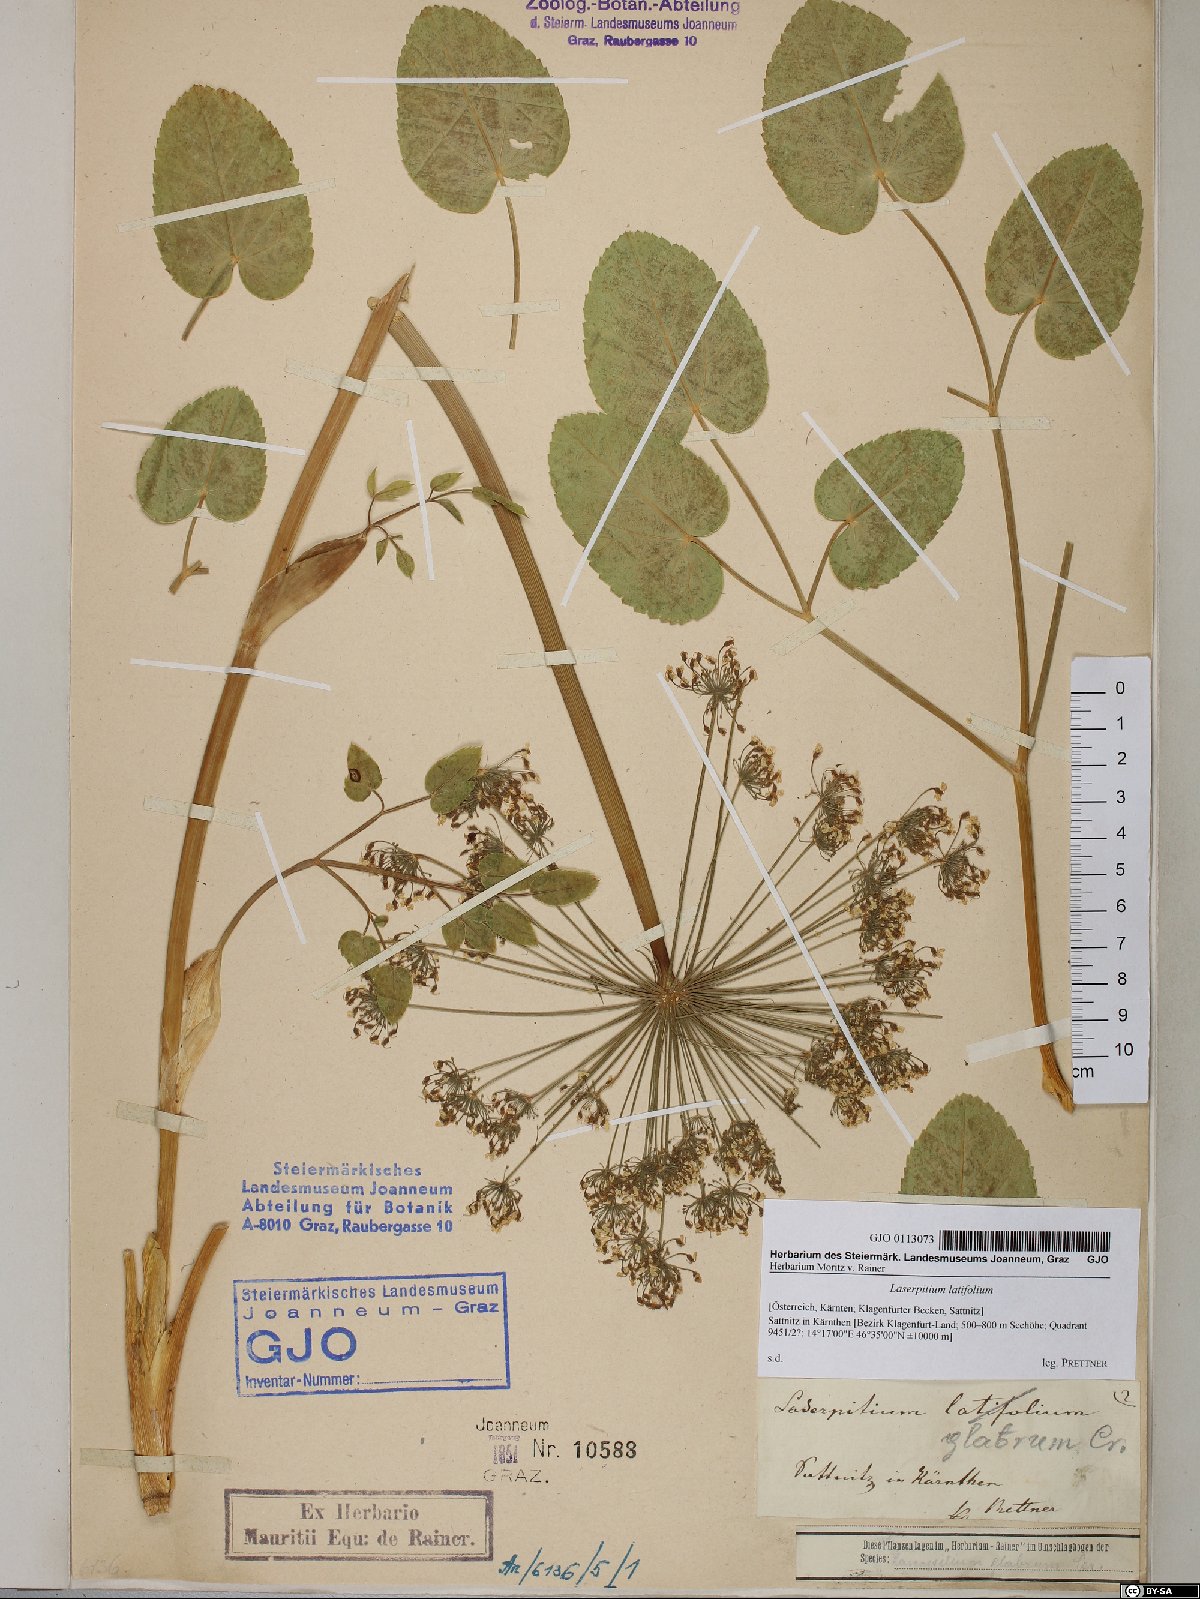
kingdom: Plantae
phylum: Tracheophyta
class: Magnoliopsida
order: Apiales
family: Apiaceae
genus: Laserpitium
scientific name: Laserpitium latifolium
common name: Broadleaf sermountain
